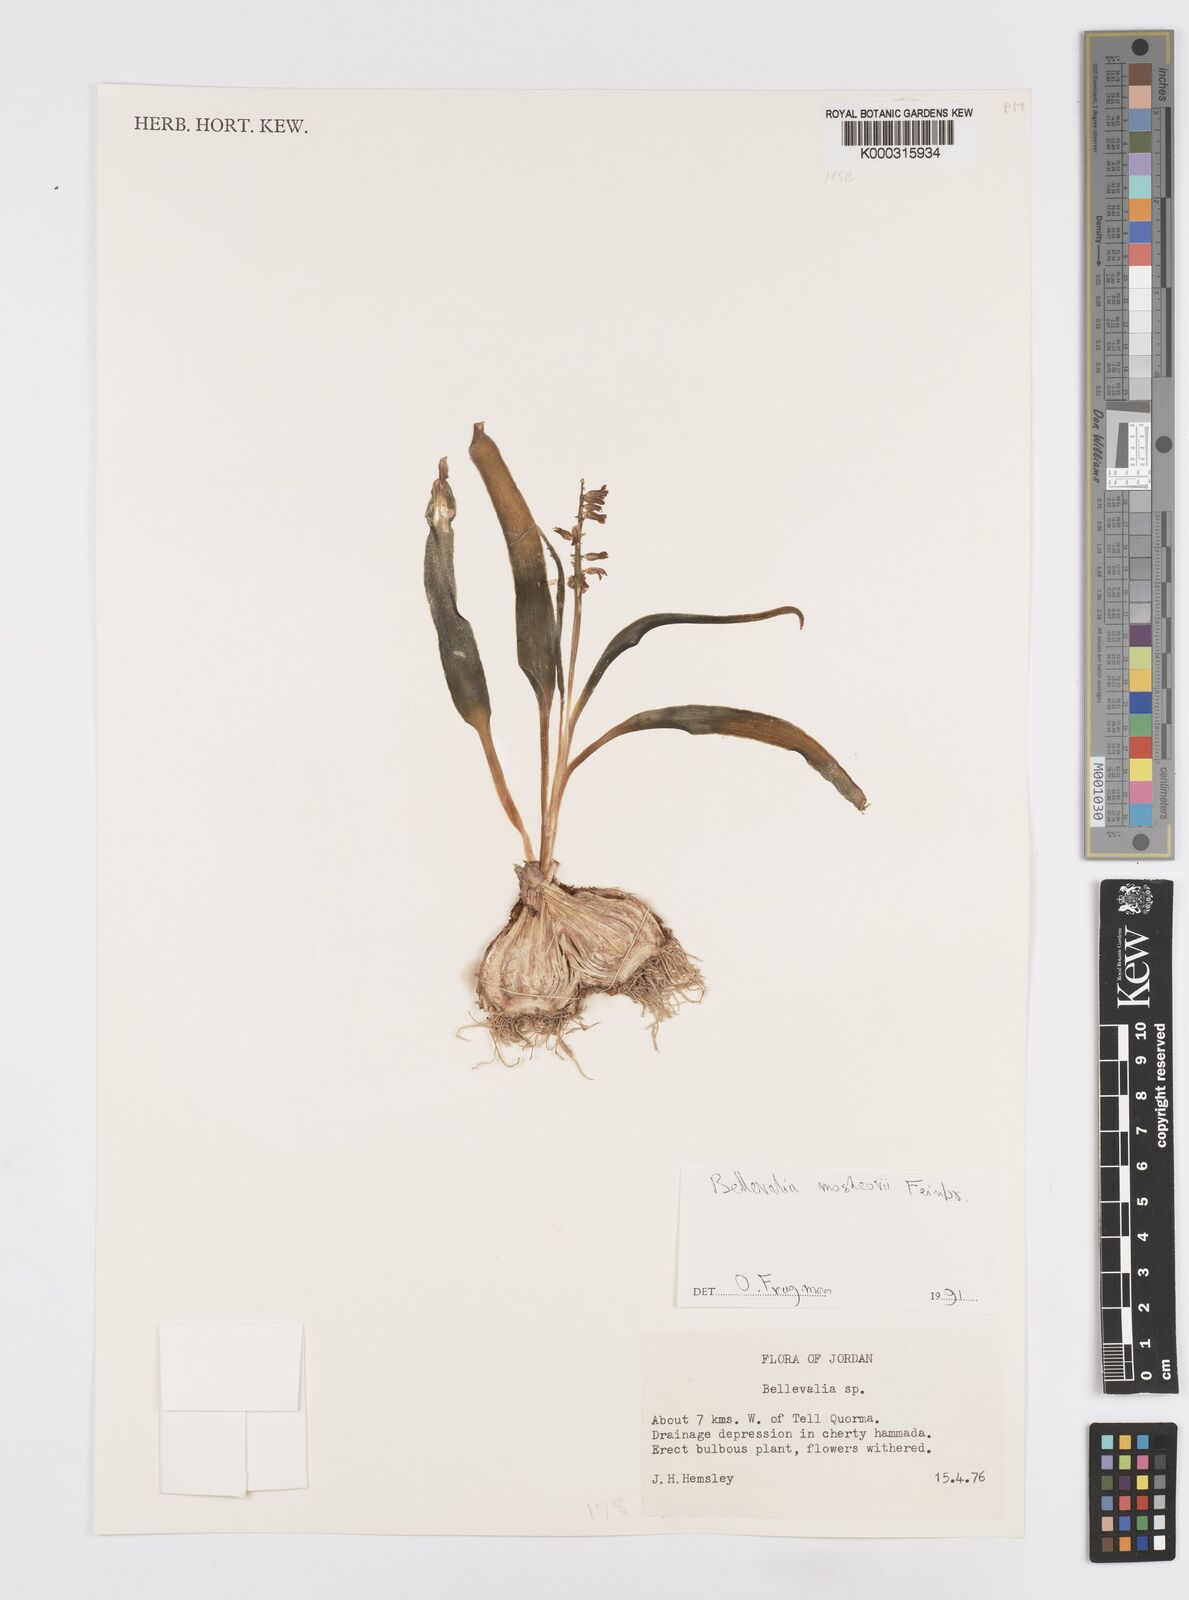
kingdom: Plantae
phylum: Tracheophyta
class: Liliopsida
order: Asparagales
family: Asparagaceae
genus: Bellevalia
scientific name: Bellevalia mosheovii
